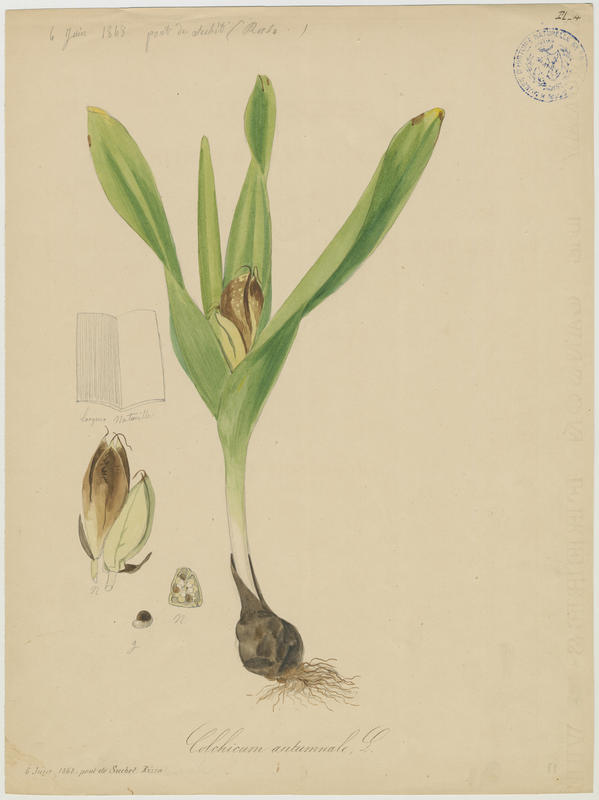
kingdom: Plantae
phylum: Tracheophyta
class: Liliopsida
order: Liliales
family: Colchicaceae
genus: Colchicum
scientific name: Colchicum autumnale
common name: Autumn crocus
